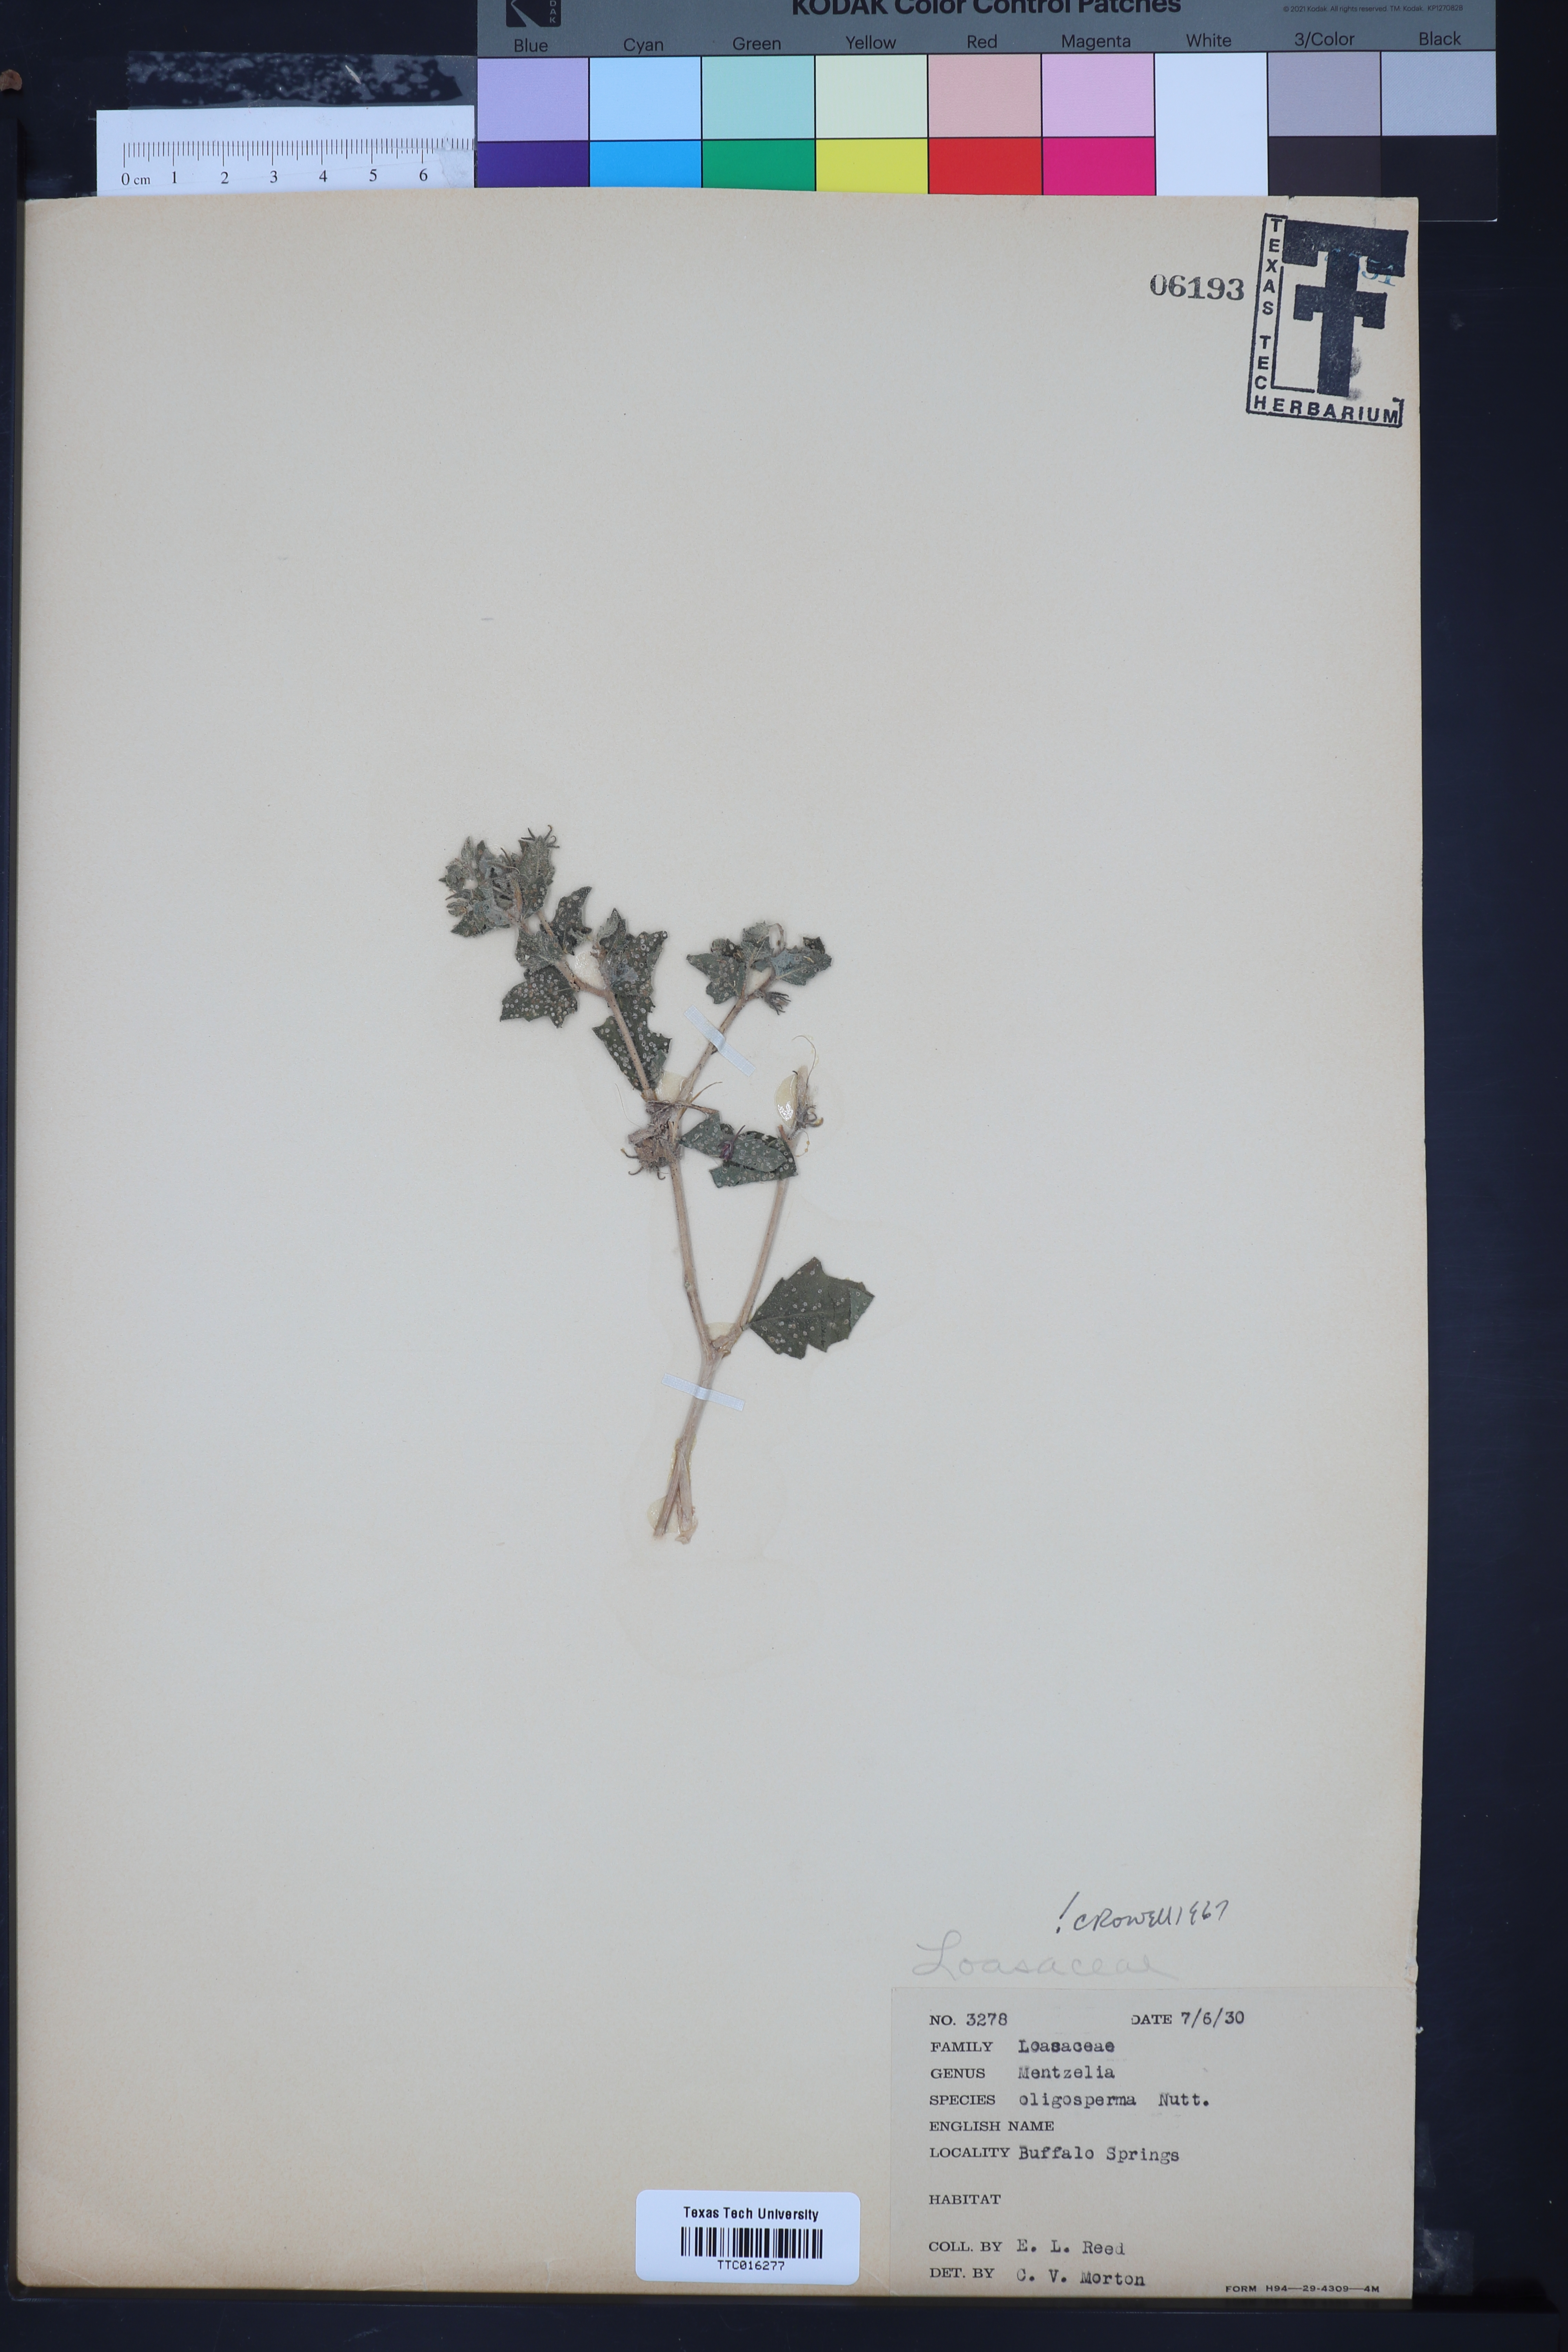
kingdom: Plantae
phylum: Tracheophyta
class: Magnoliopsida
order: Cornales
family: Loasaceae
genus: Mentzelia
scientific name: Mentzelia oligosperma
